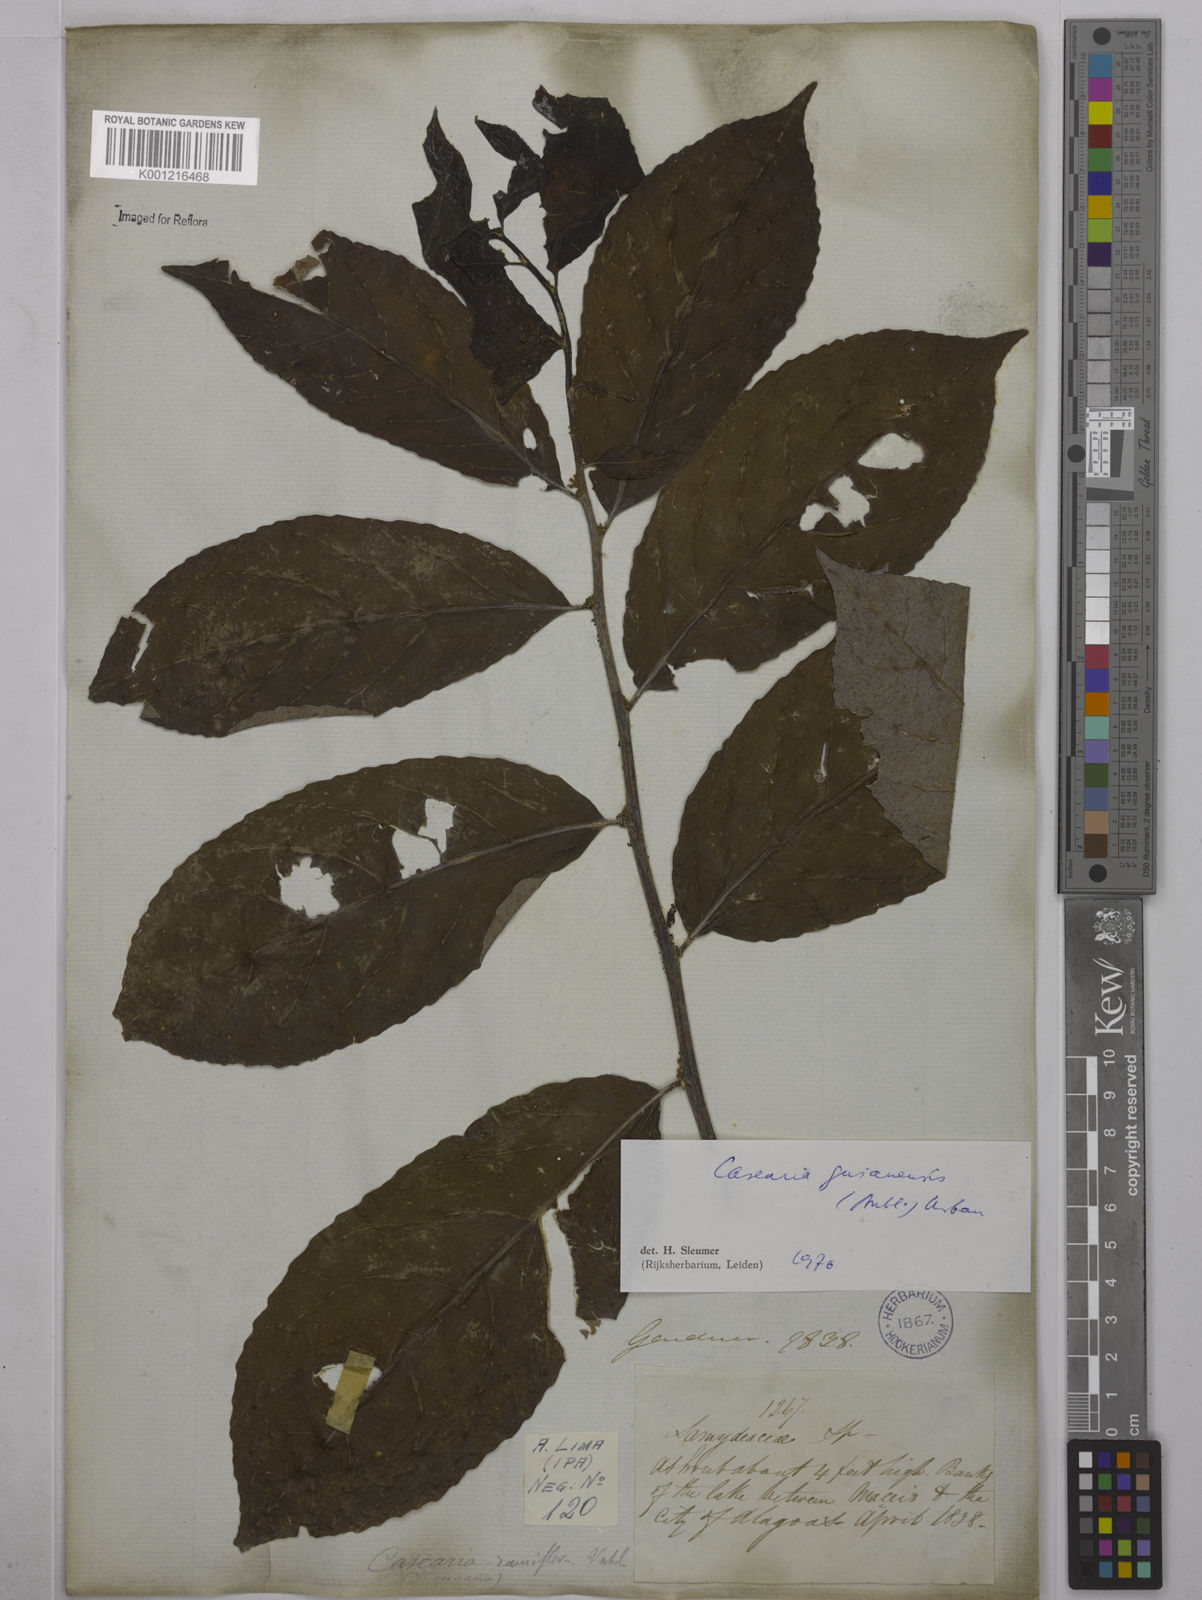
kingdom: Plantae
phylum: Tracheophyta
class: Magnoliopsida
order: Malpighiales
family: Salicaceae
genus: Casearia
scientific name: Casearia guianensis
